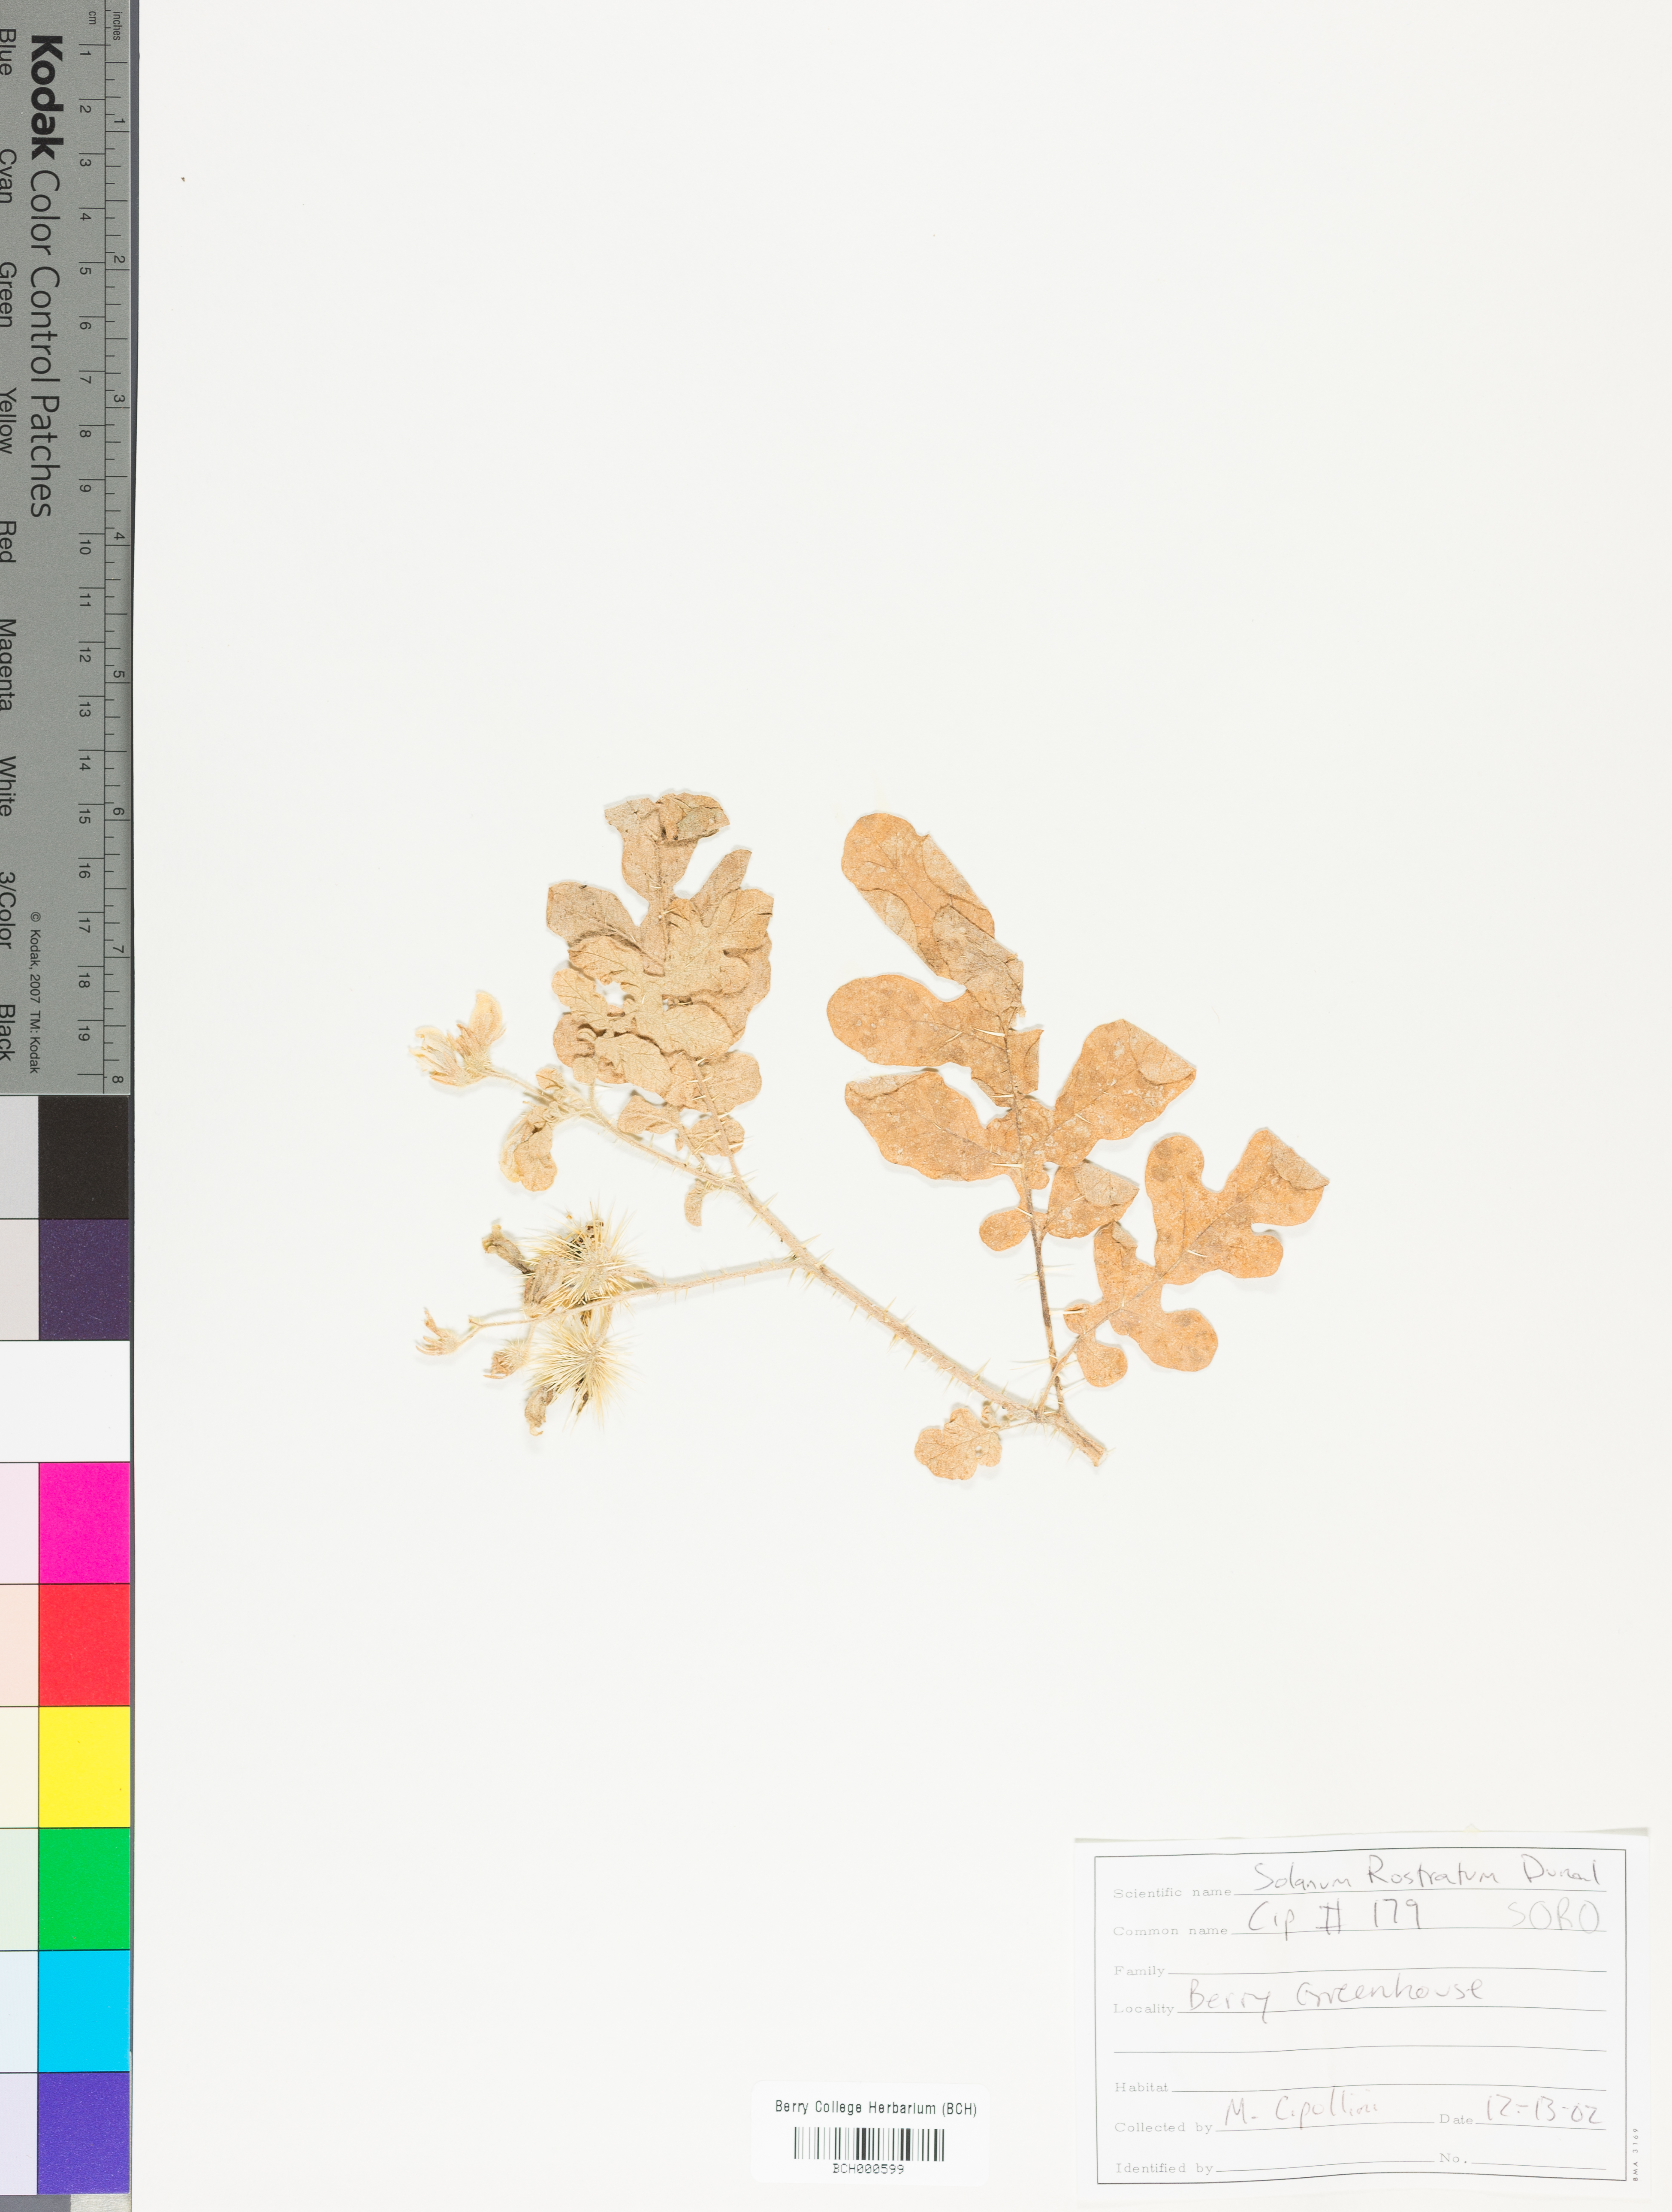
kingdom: Plantae
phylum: Tracheophyta
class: Magnoliopsida
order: Solanales
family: Solanaceae
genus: Solanum
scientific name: Solanum angustifolium
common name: Buffalobur nightshade
